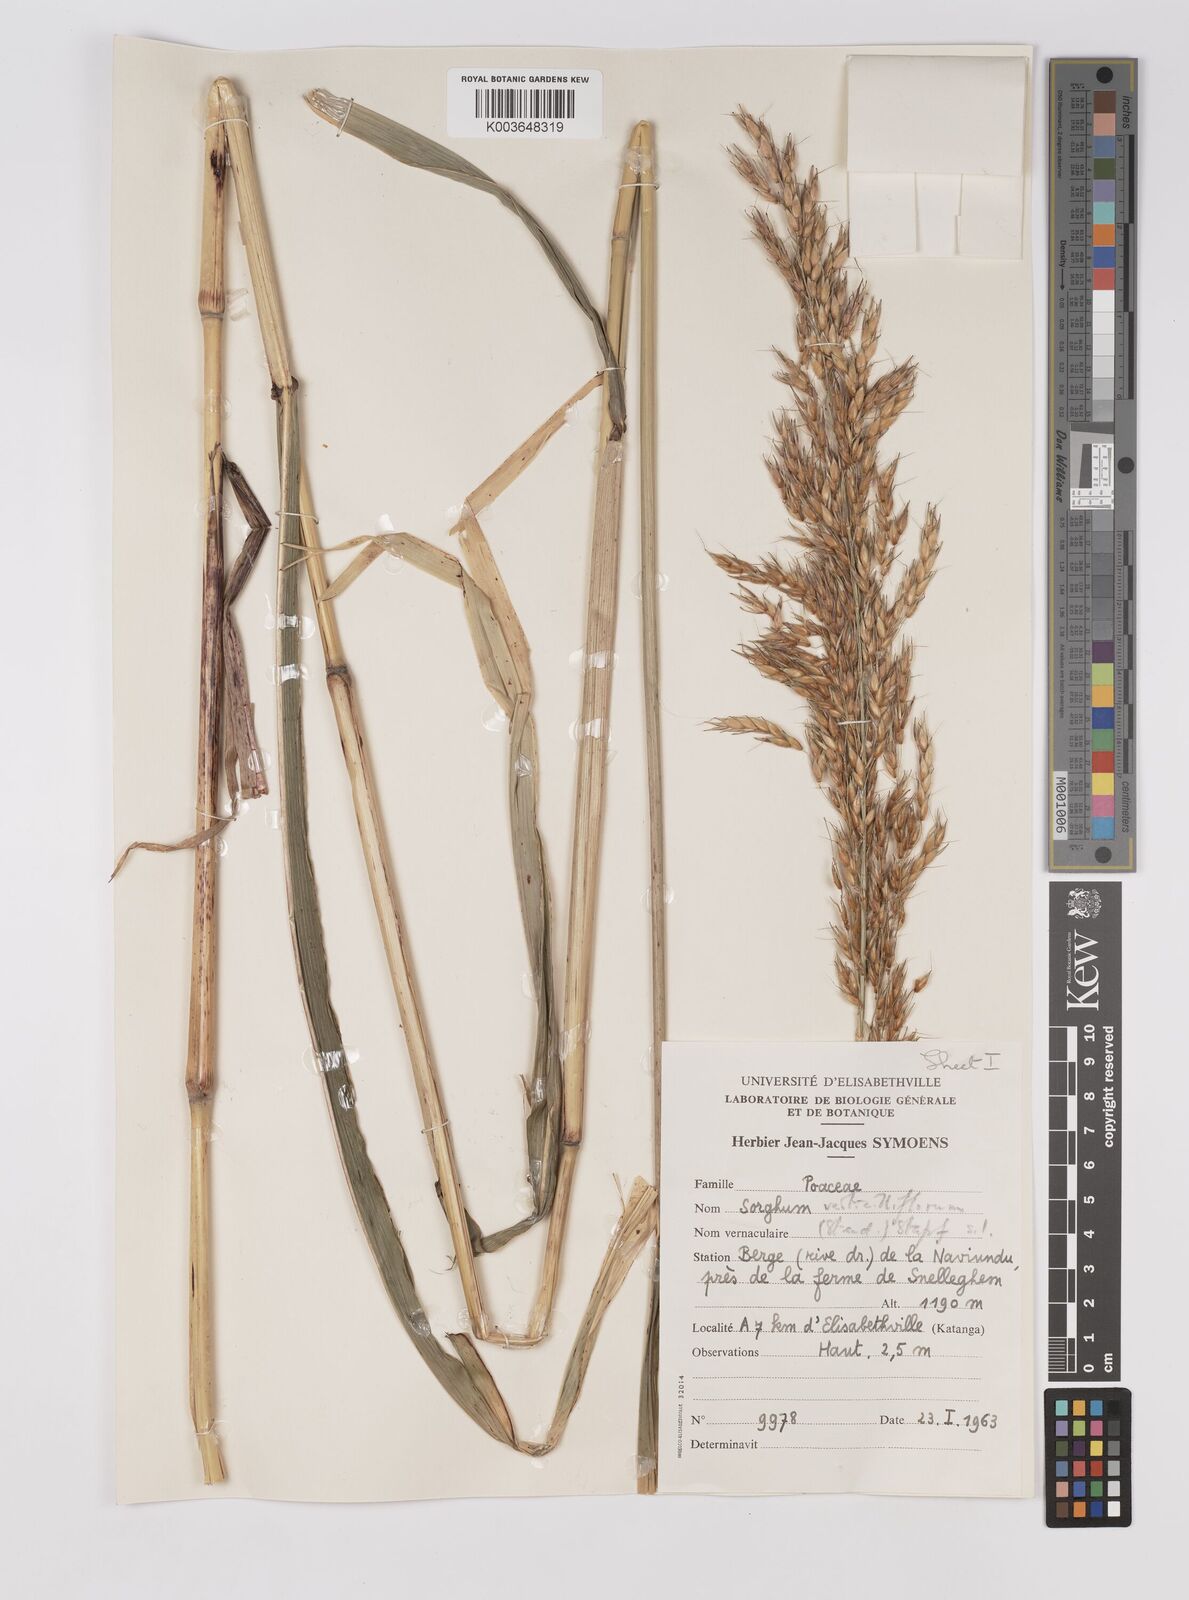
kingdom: Plantae
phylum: Tracheophyta
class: Liliopsida
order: Poales
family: Poaceae
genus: Sorghum
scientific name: Sorghum arundinaceum
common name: Sorghum
